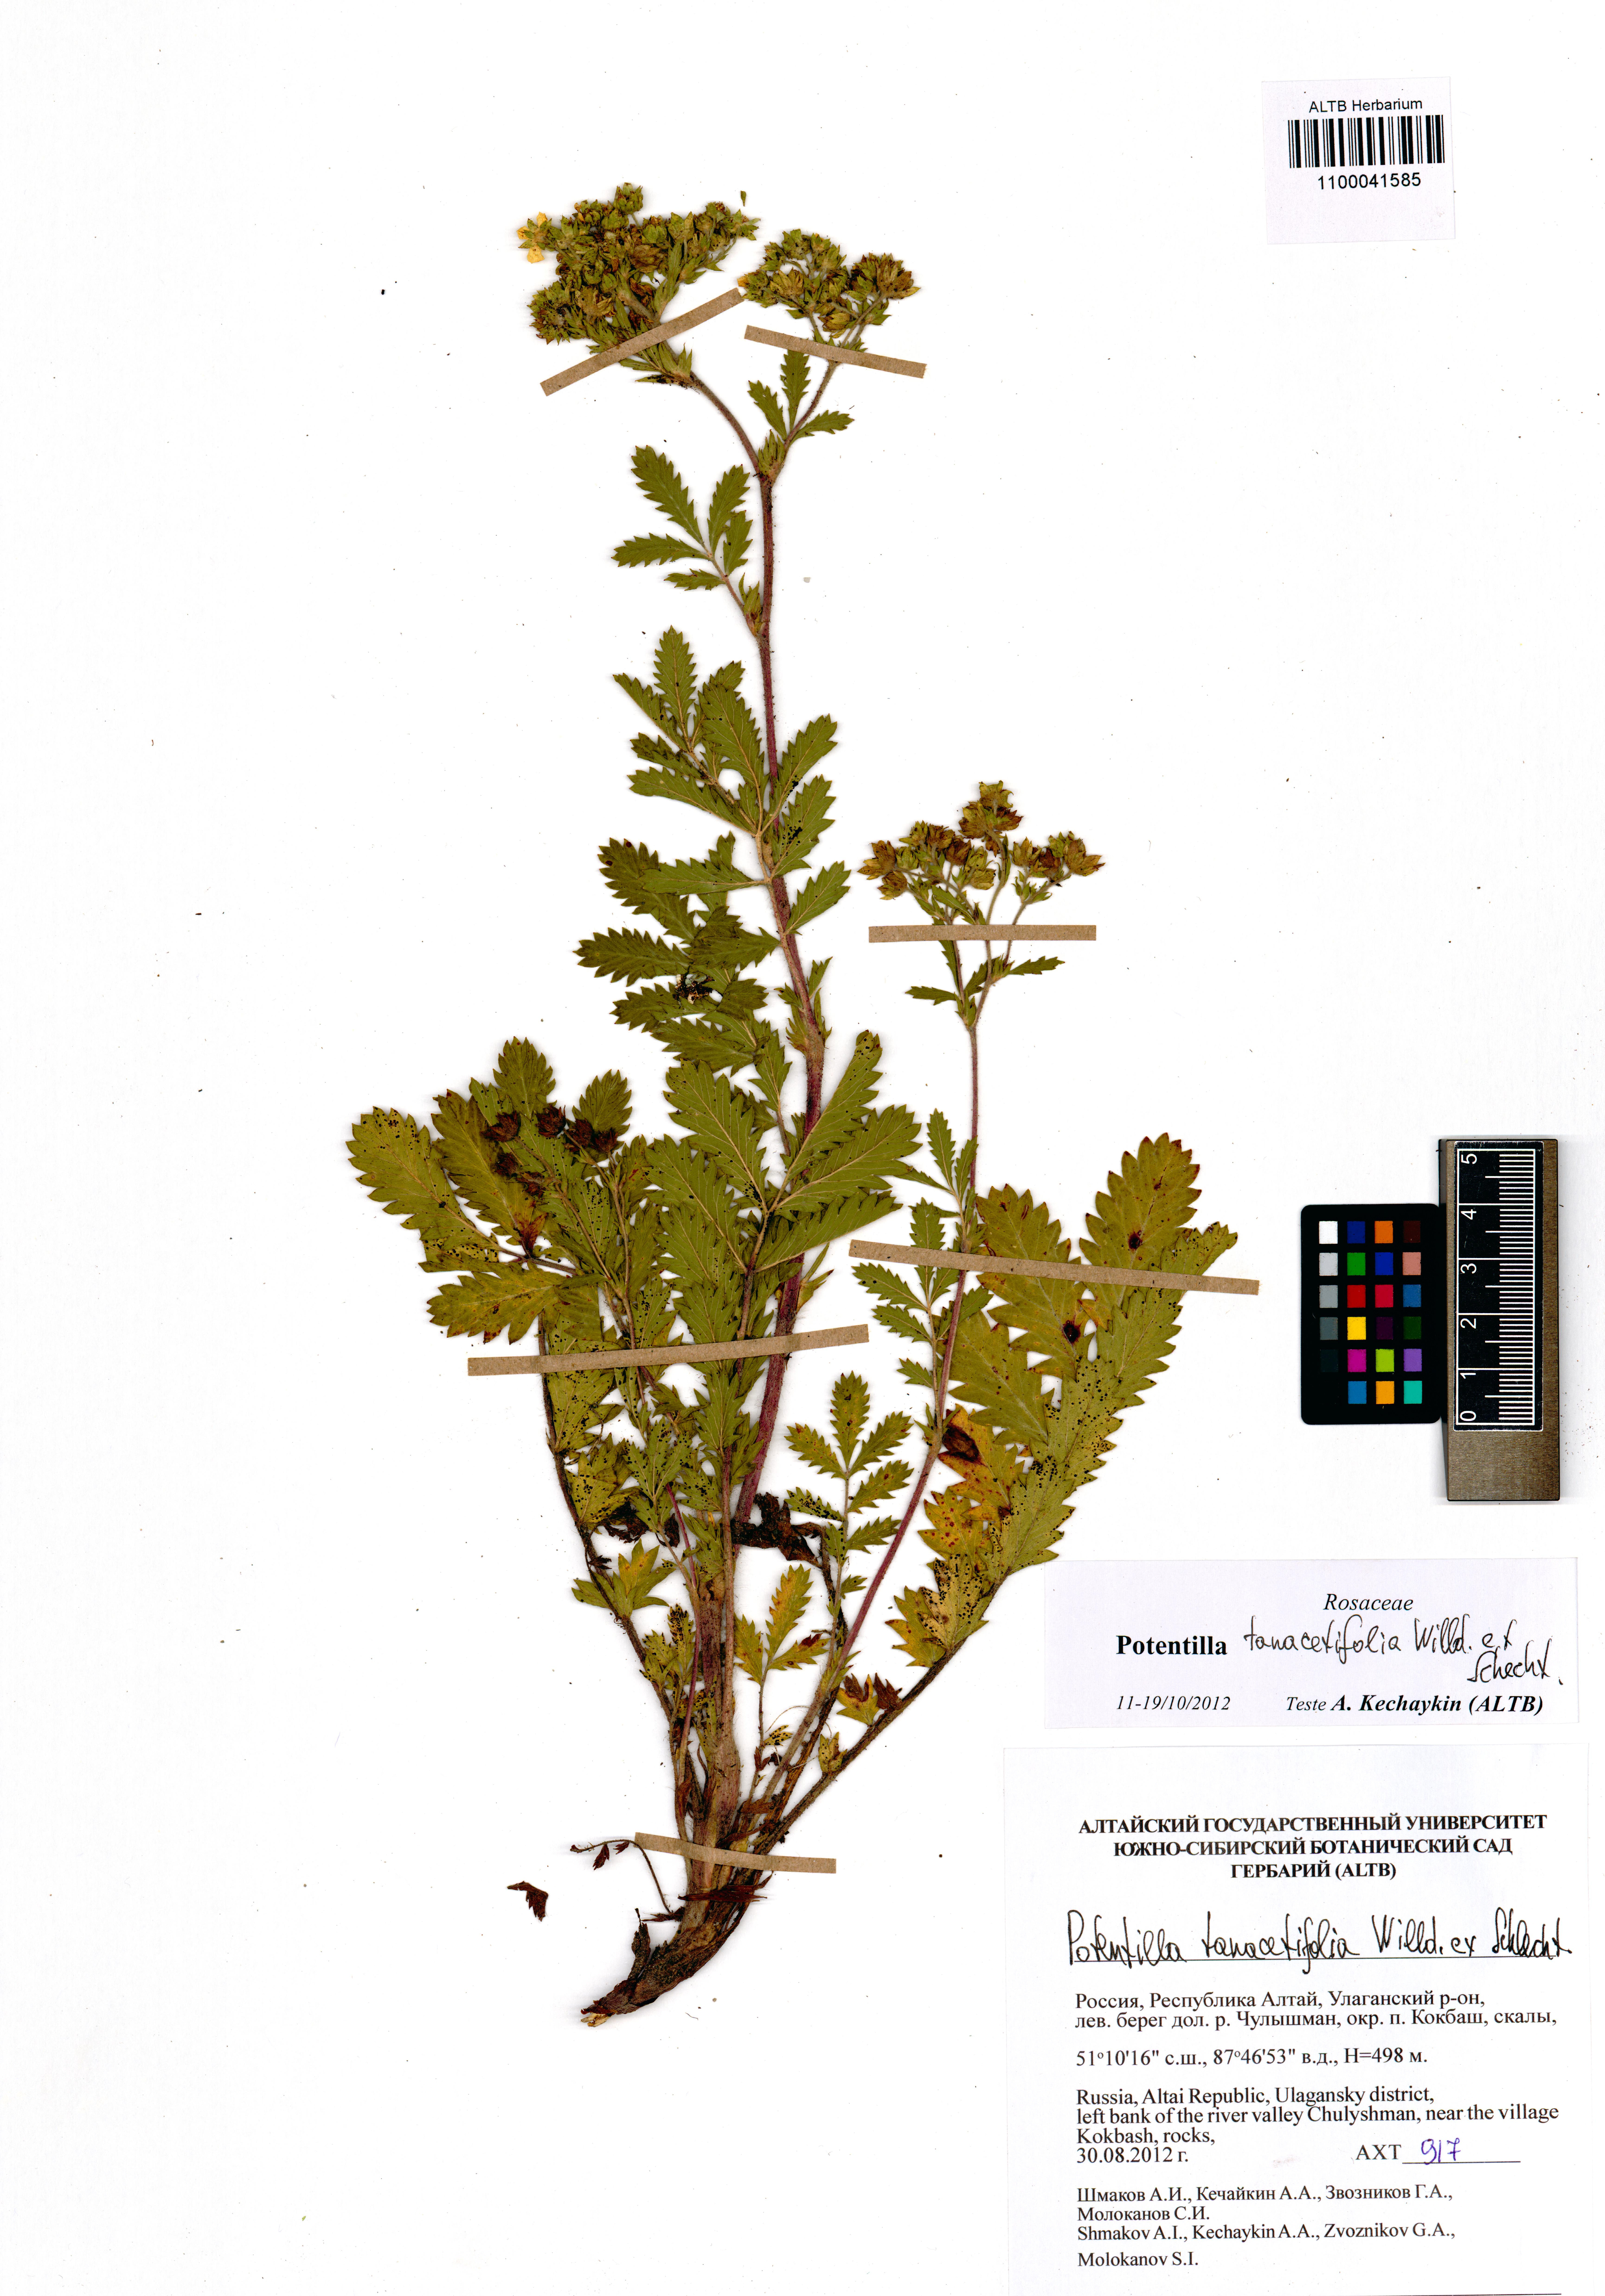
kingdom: Plantae
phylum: Tracheophyta
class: Magnoliopsida
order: Rosales
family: Rosaceae
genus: Potentilla
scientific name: Potentilla tanacetifolia
